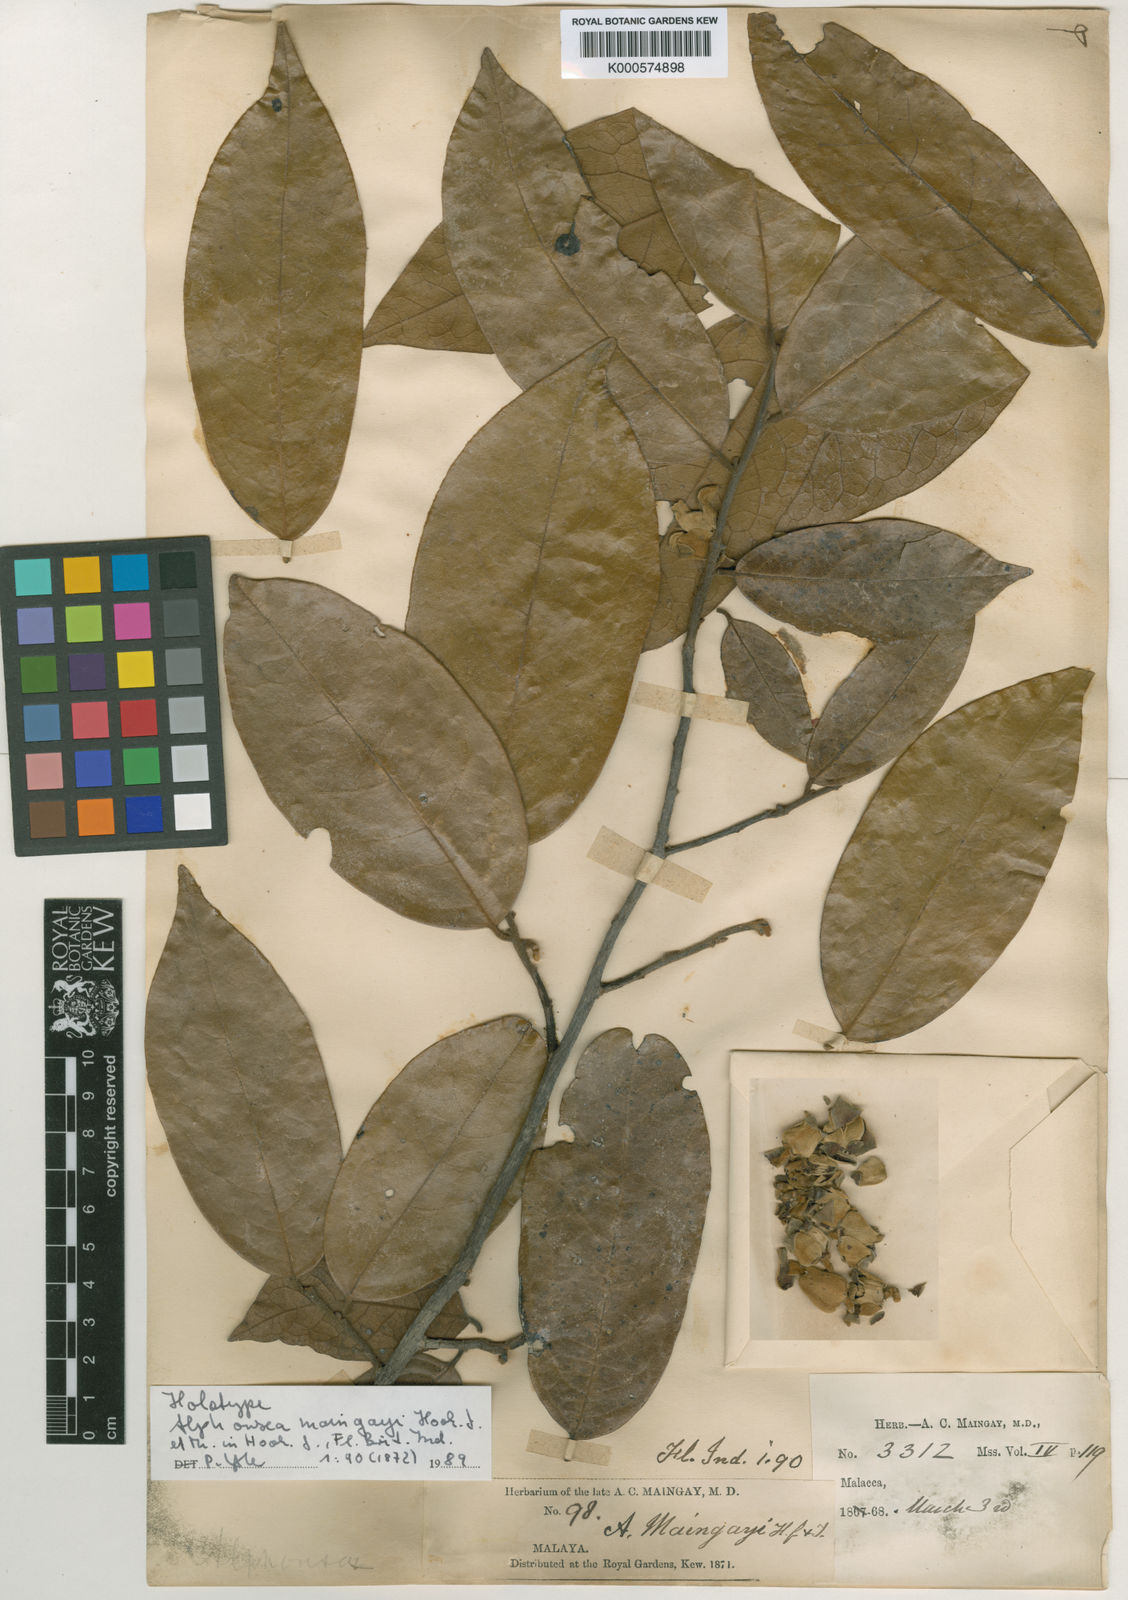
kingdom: Plantae
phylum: Tracheophyta
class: Magnoliopsida
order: Magnoliales
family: Annonaceae
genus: Alphonsea
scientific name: Alphonsea maingayi
